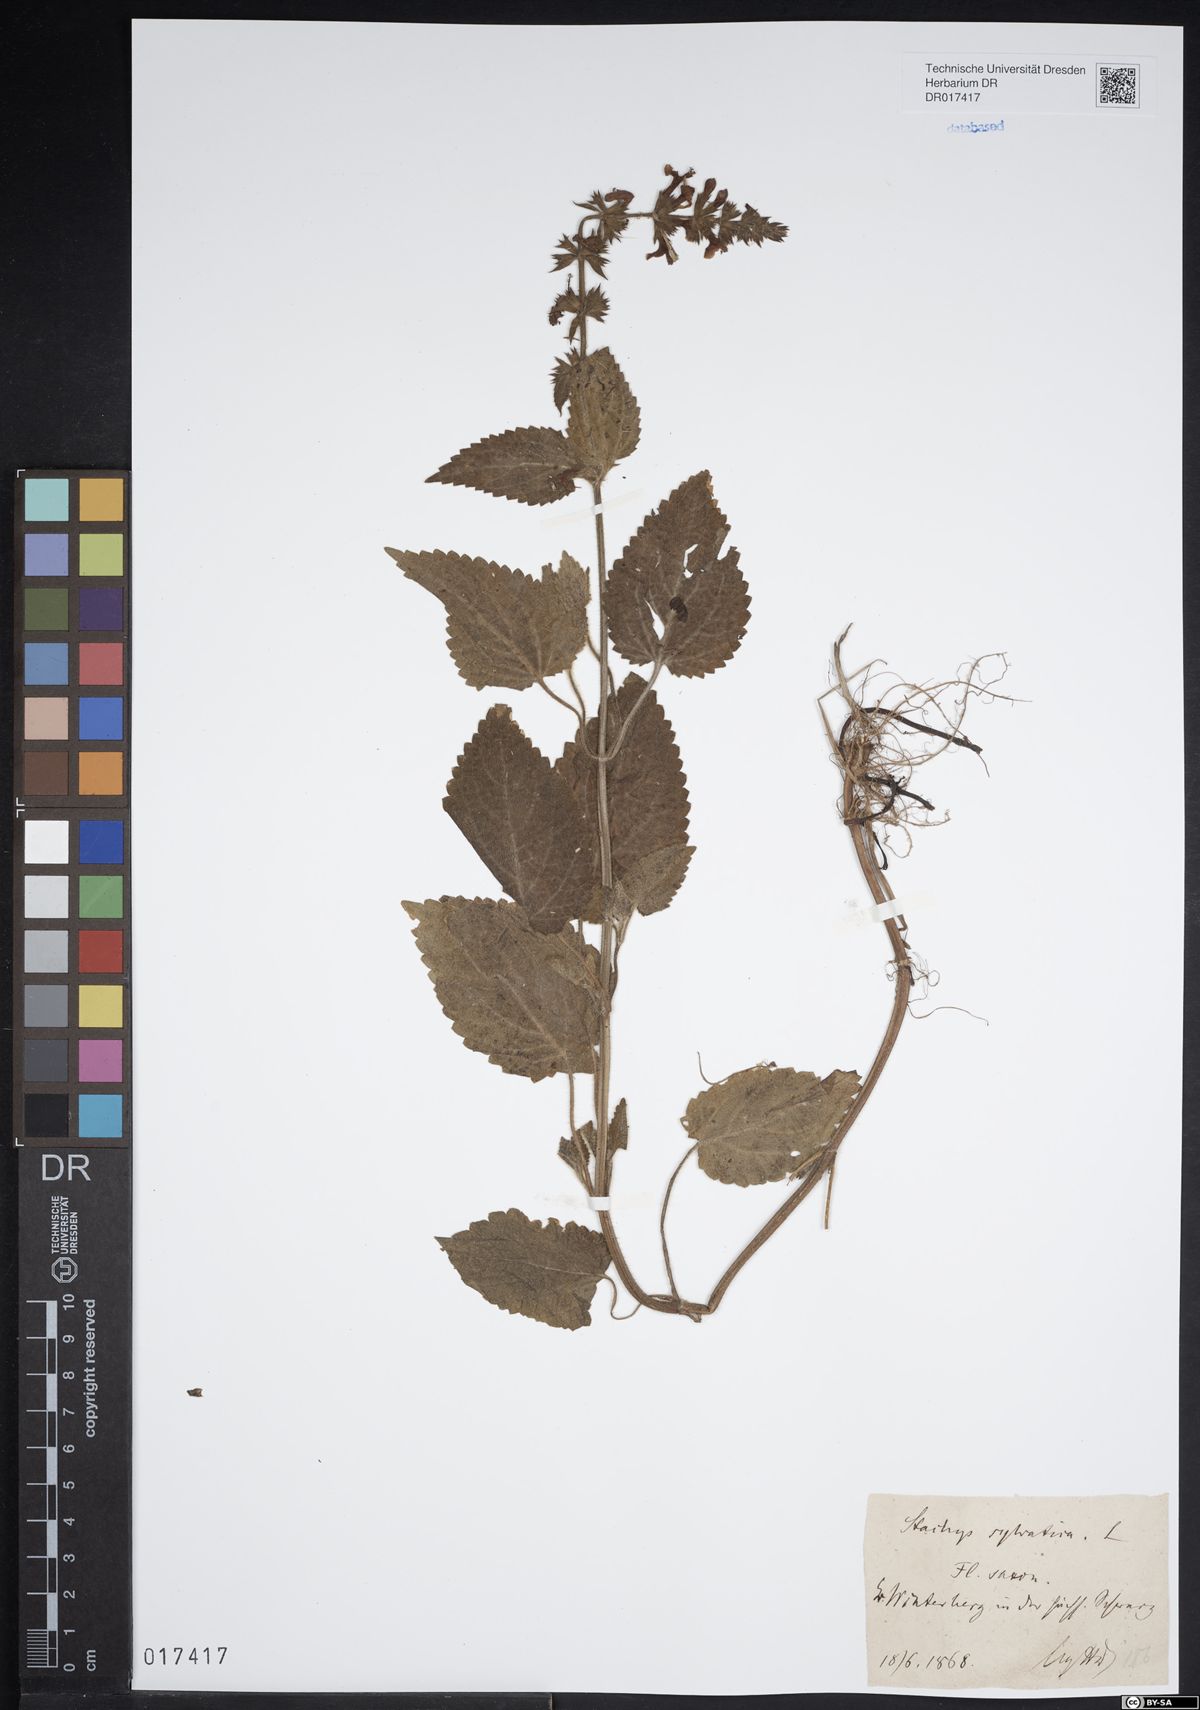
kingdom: Plantae
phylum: Tracheophyta
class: Magnoliopsida
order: Lamiales
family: Lamiaceae
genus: Stachys
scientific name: Stachys sylvatica
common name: Hedge woundwort
